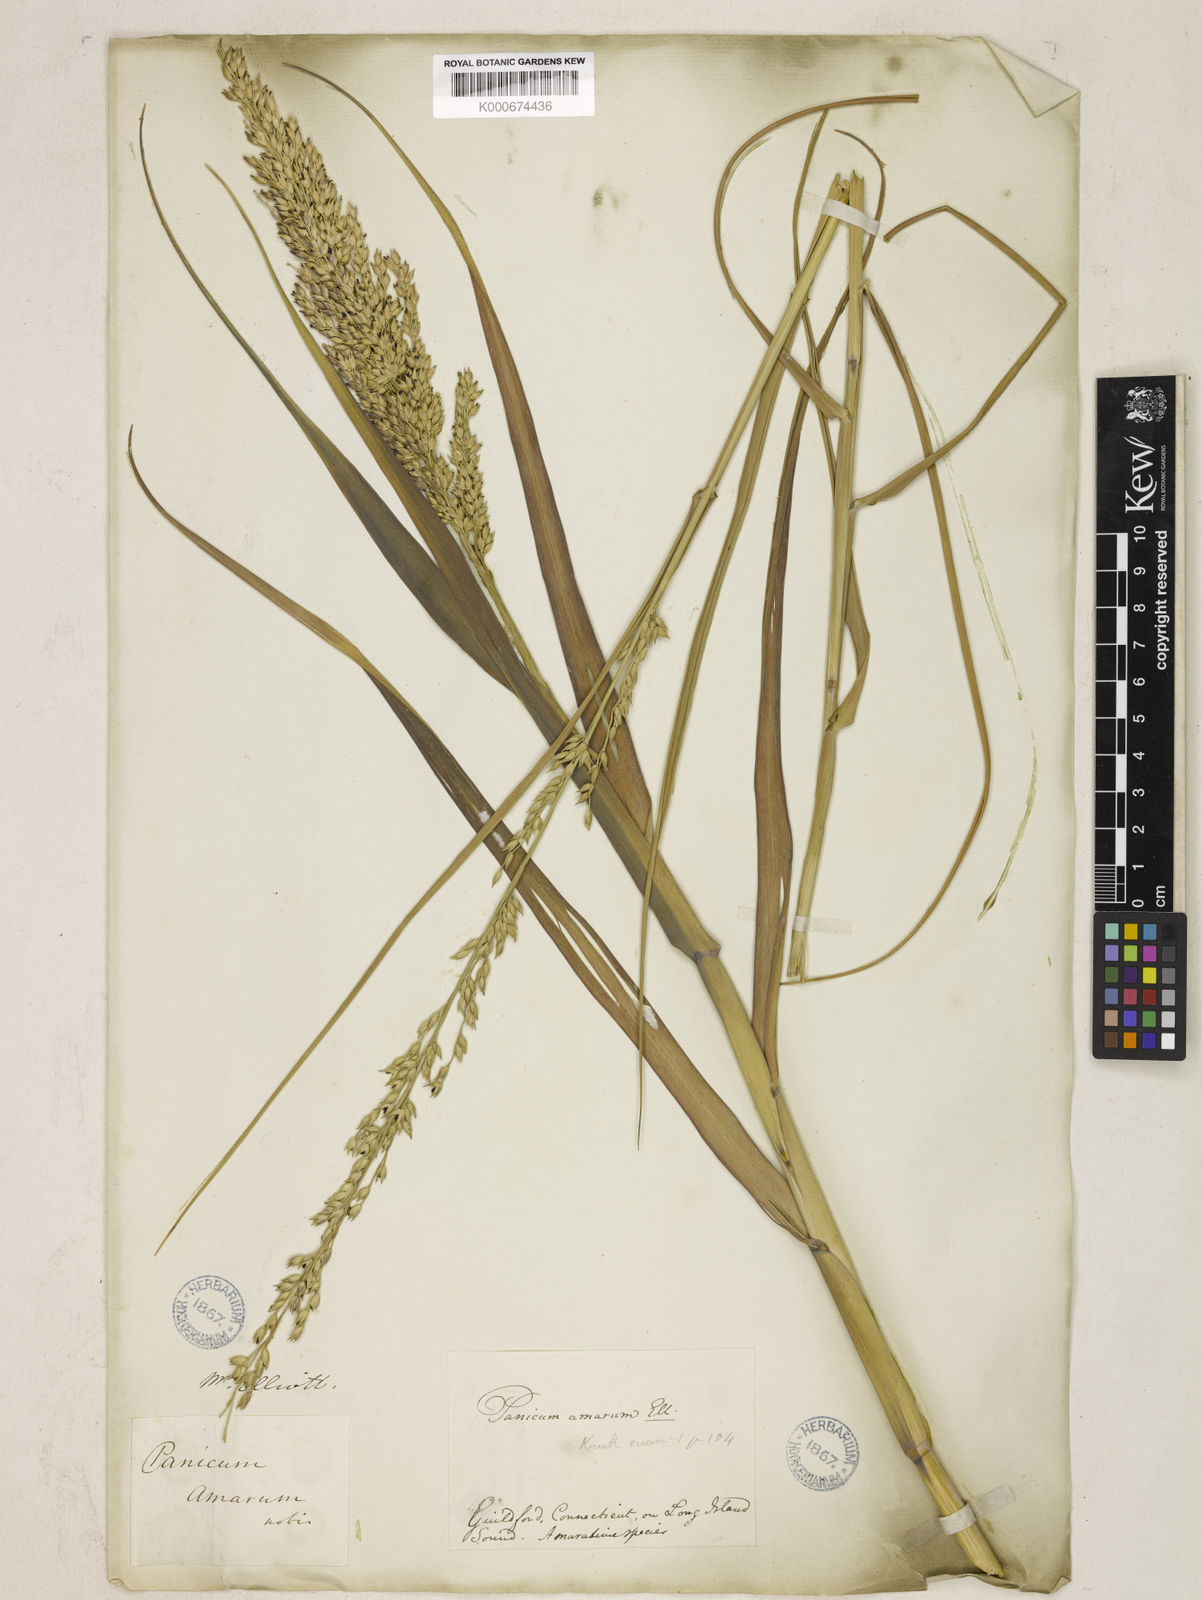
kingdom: Plantae
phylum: Tracheophyta
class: Liliopsida
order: Poales
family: Poaceae
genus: Panicum
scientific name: Panicum amarum
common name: Bitter panicum
